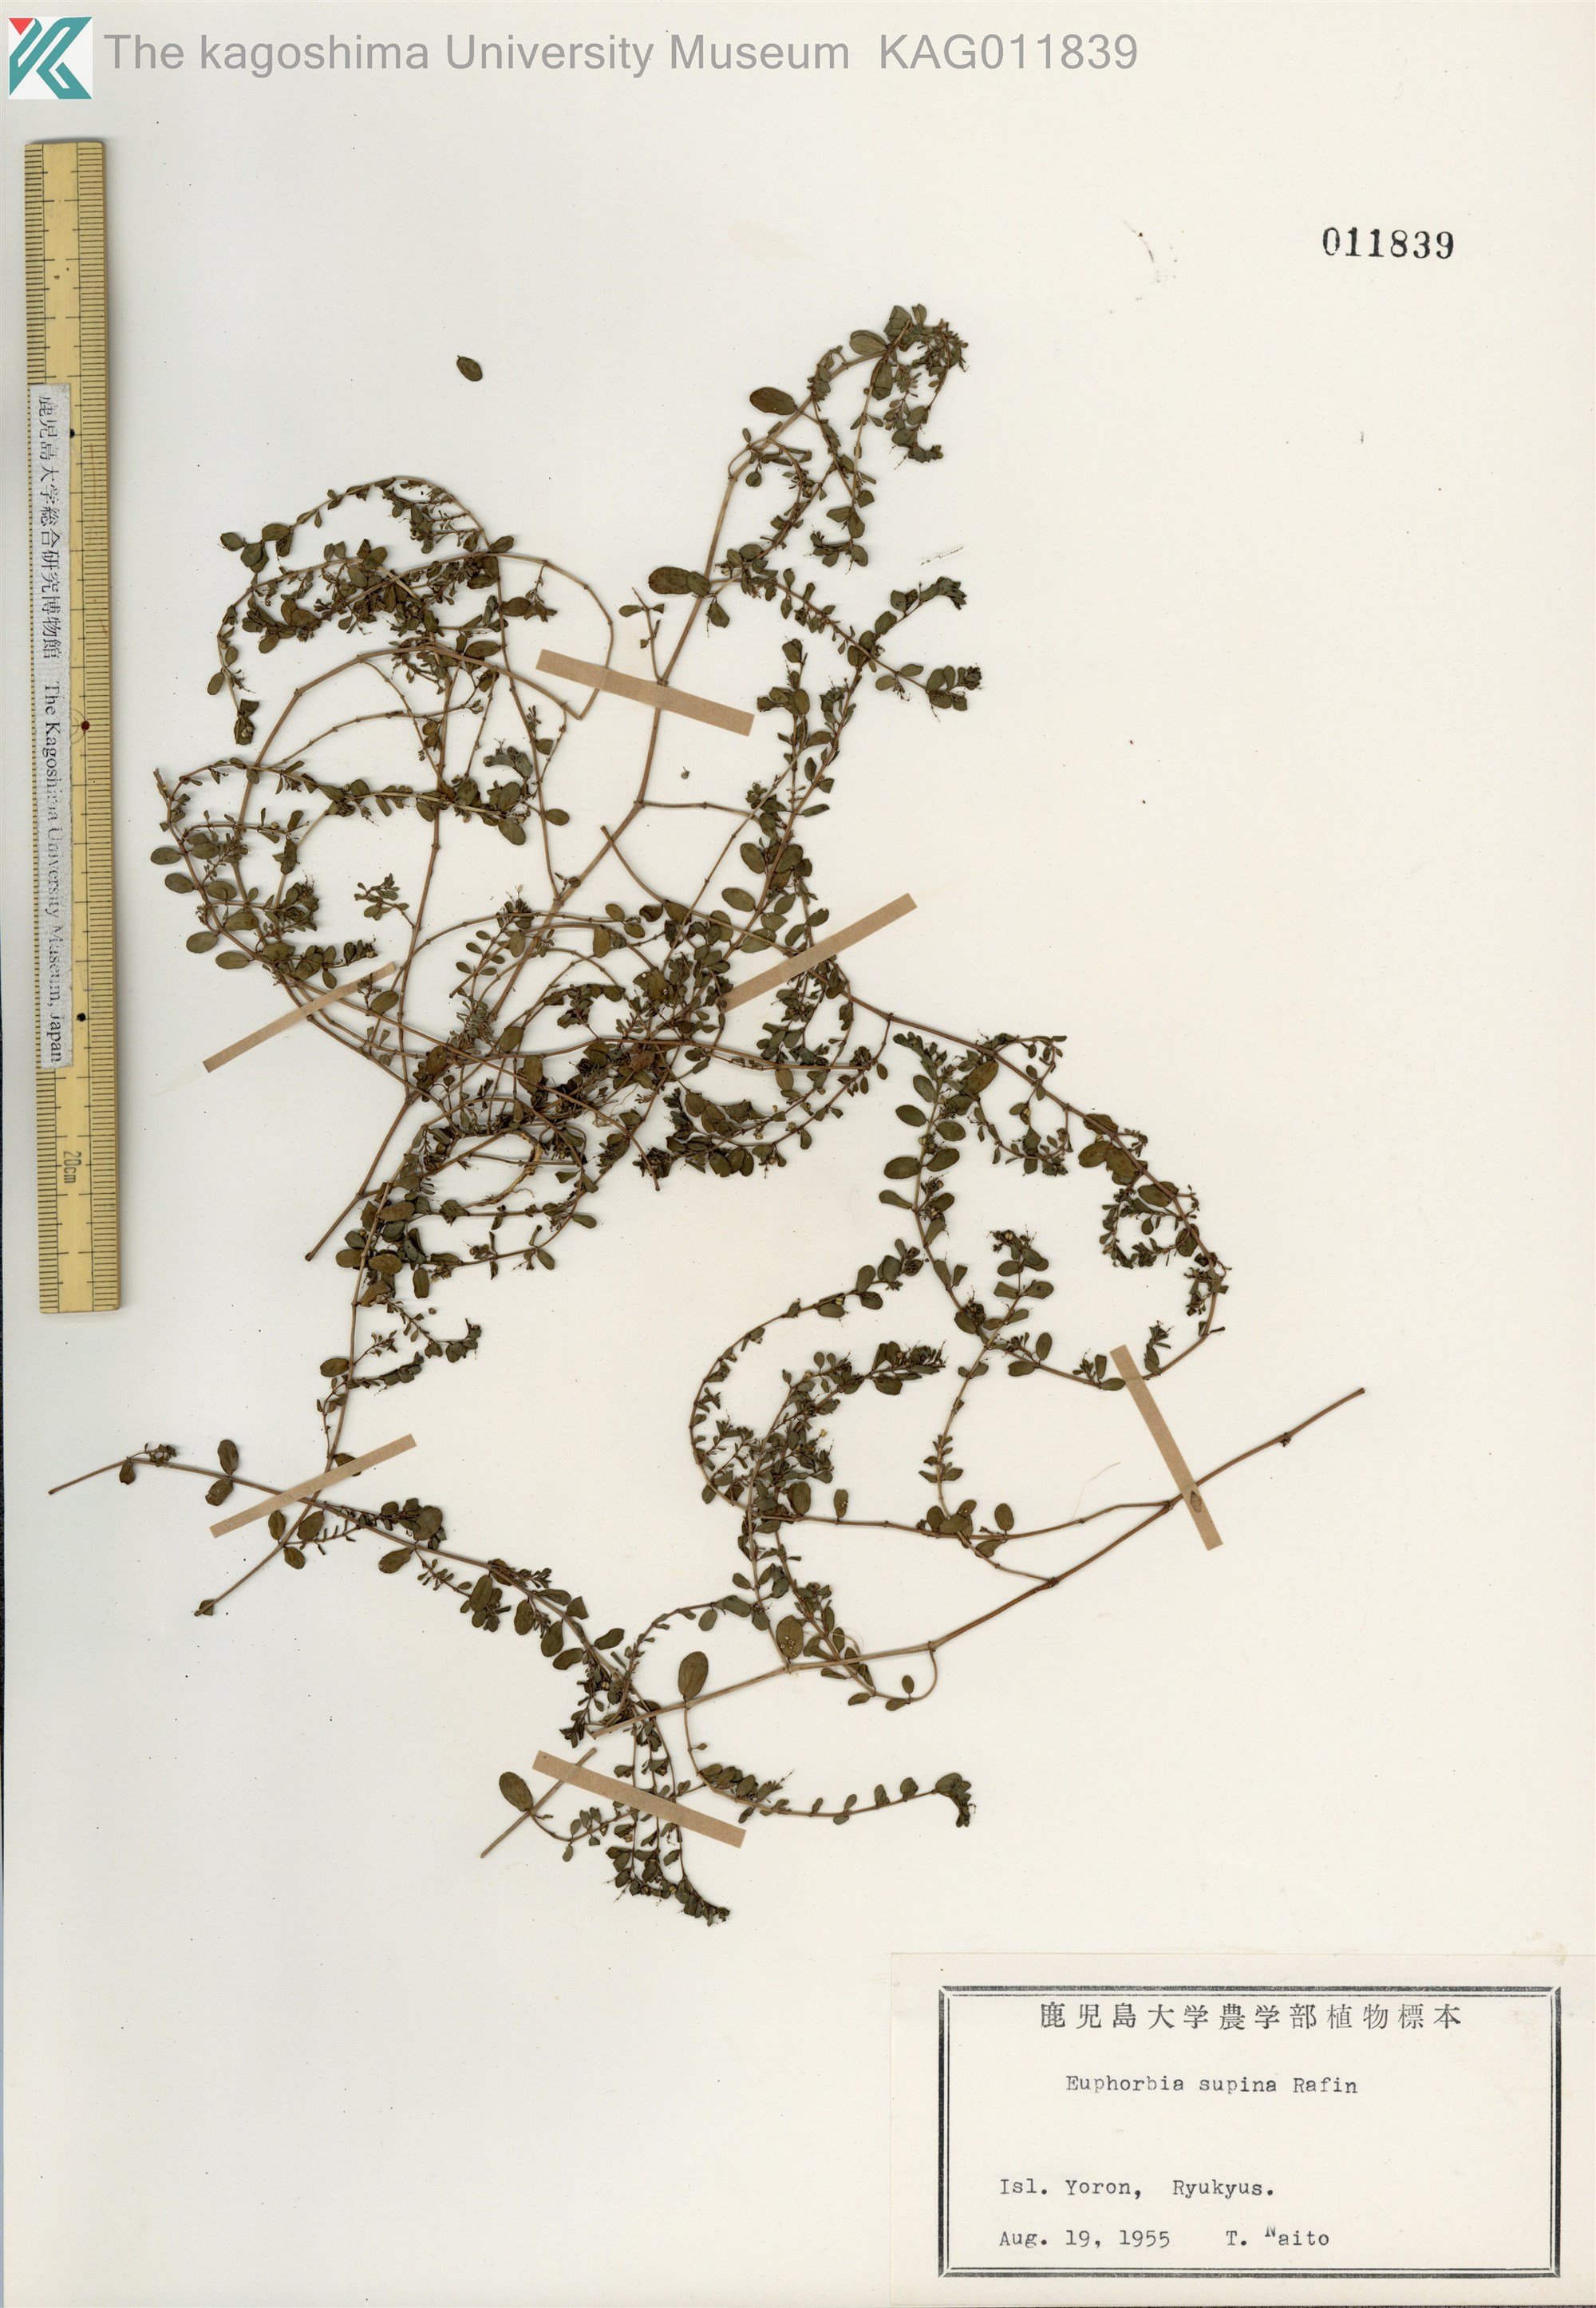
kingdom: Plantae
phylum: Tracheophyta
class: Magnoliopsida
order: Malpighiales
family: Euphorbiaceae
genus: Euphorbia
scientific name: Euphorbia prostrata
